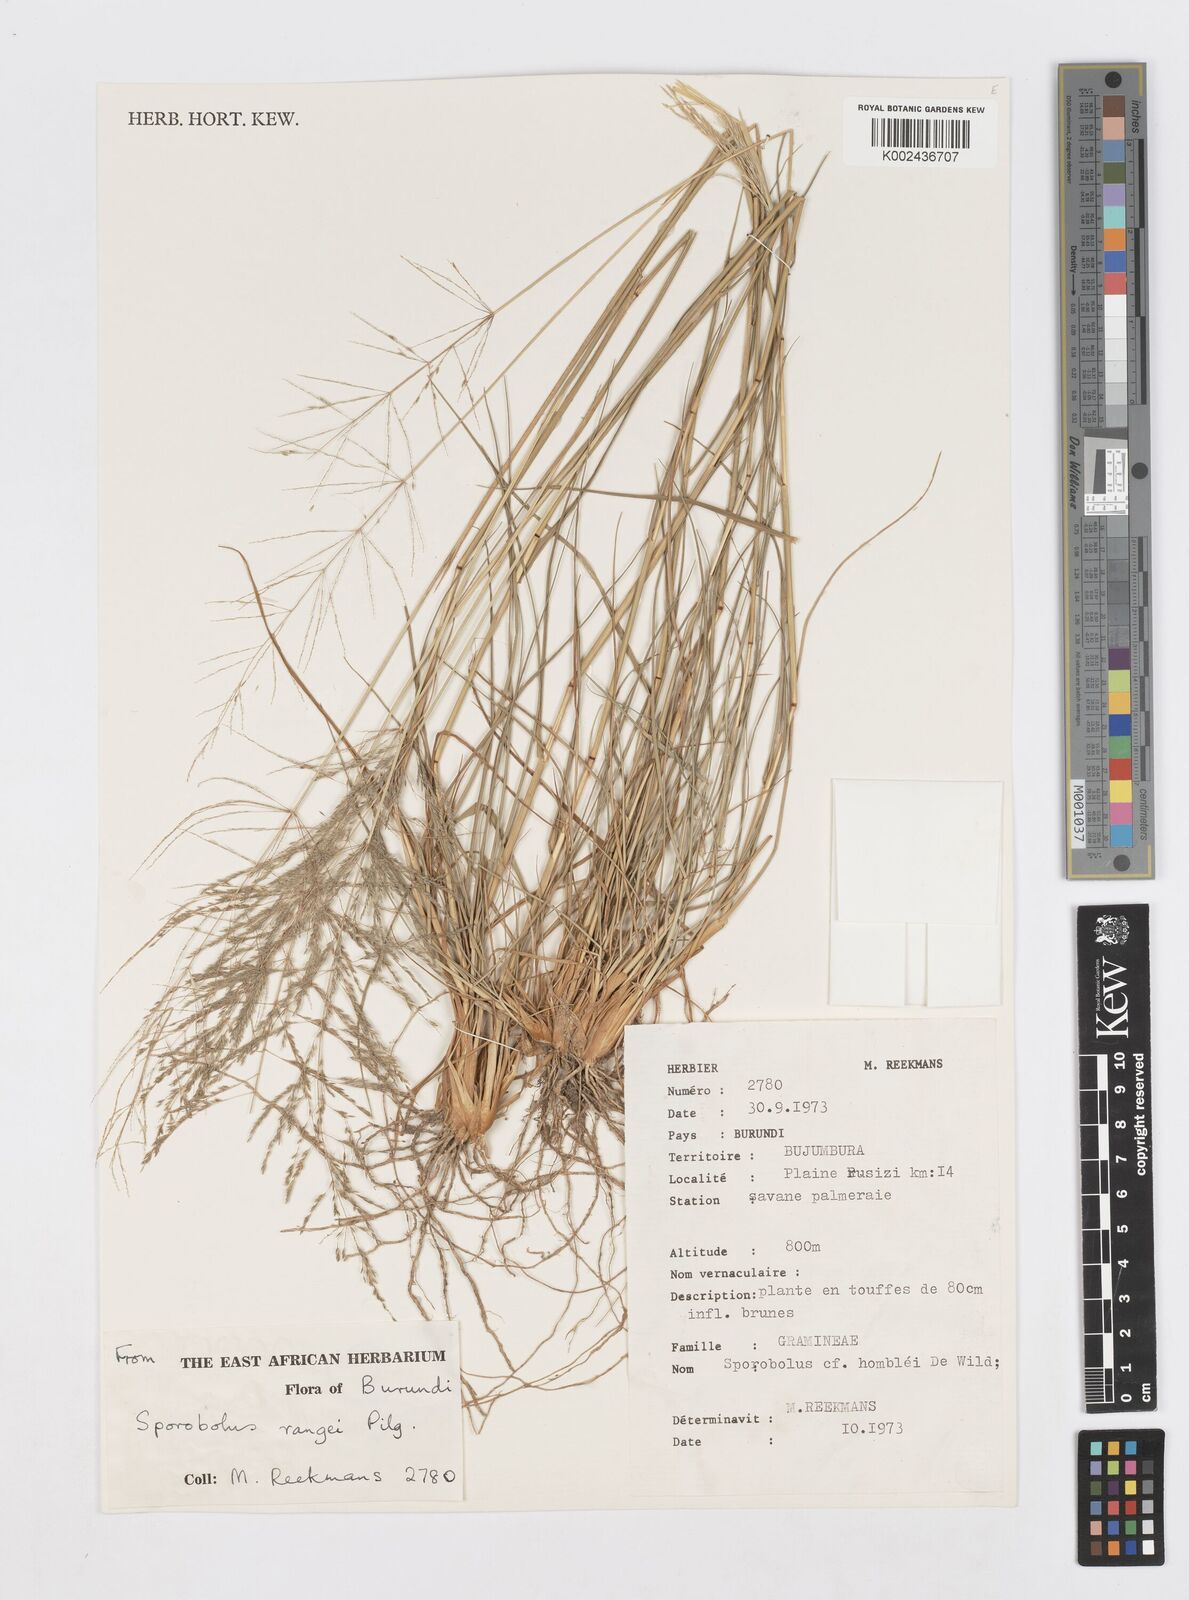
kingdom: Plantae
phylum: Tracheophyta
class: Liliopsida
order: Poales
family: Poaceae
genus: Sporobolus
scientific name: Sporobolus ioclados
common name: Pan dropseed
